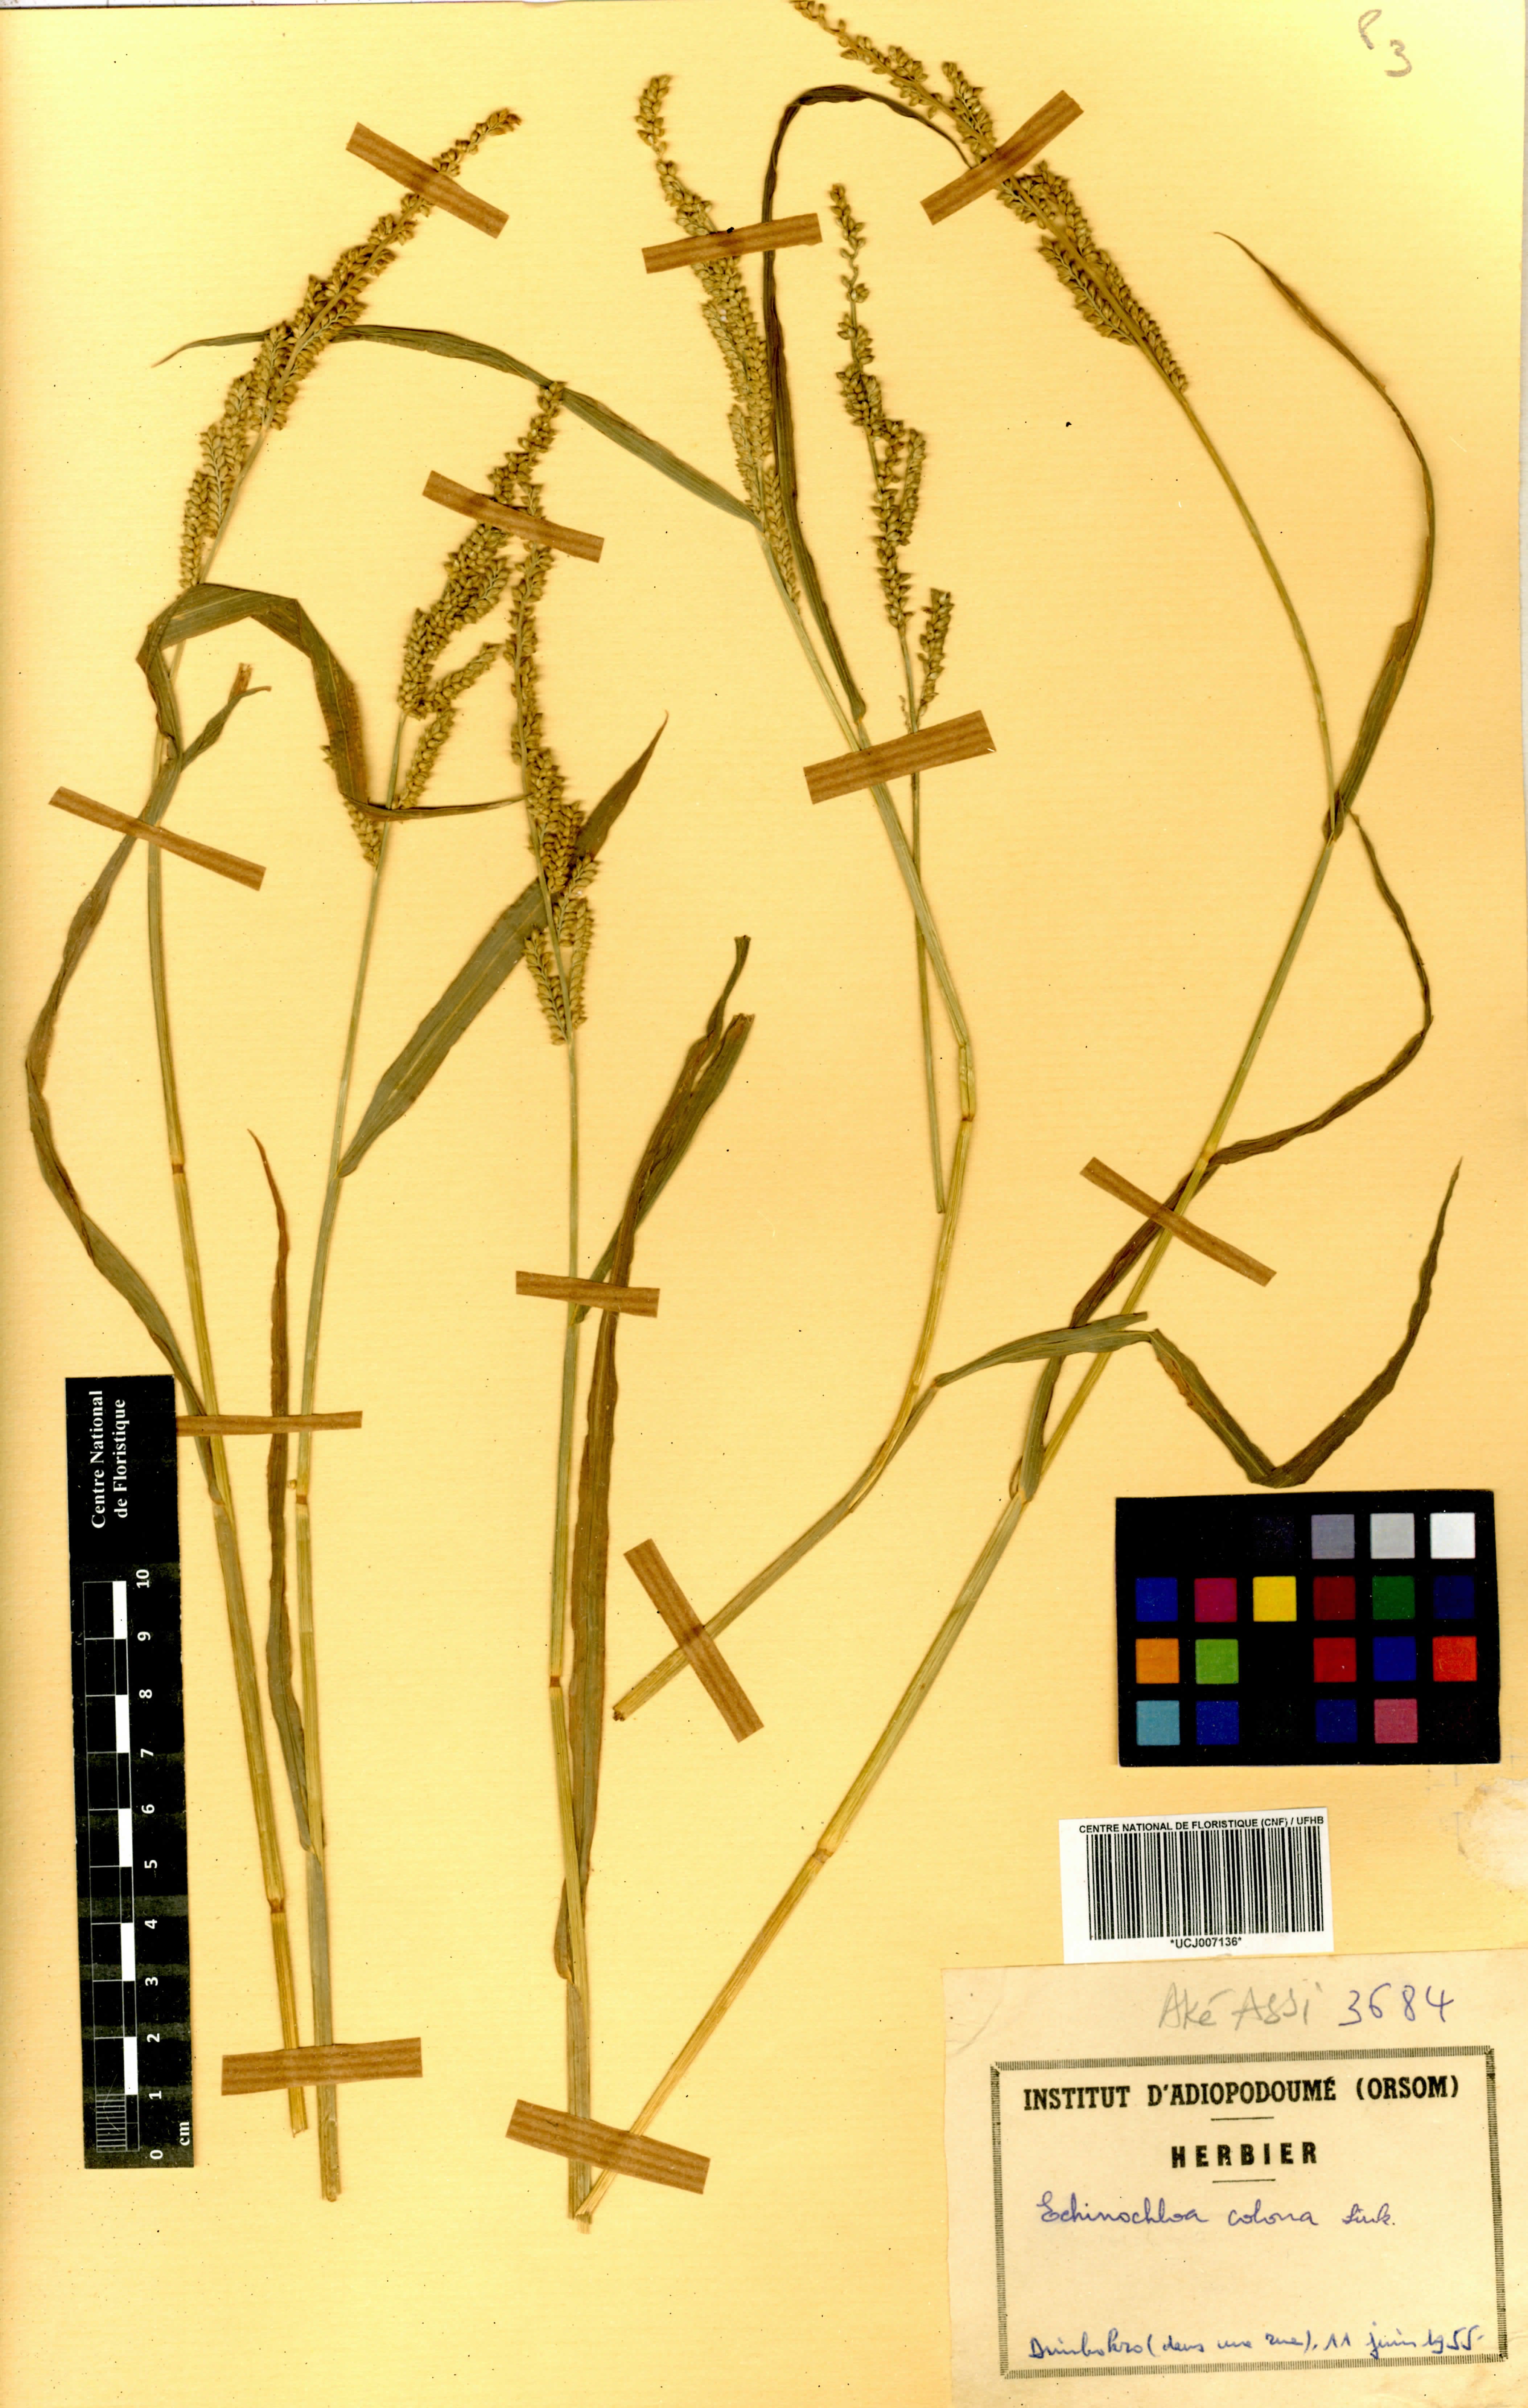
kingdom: Plantae
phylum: Tracheophyta
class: Liliopsida
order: Poales
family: Poaceae
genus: Echinochloa
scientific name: Echinochloa colonum
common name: Jungle rice
